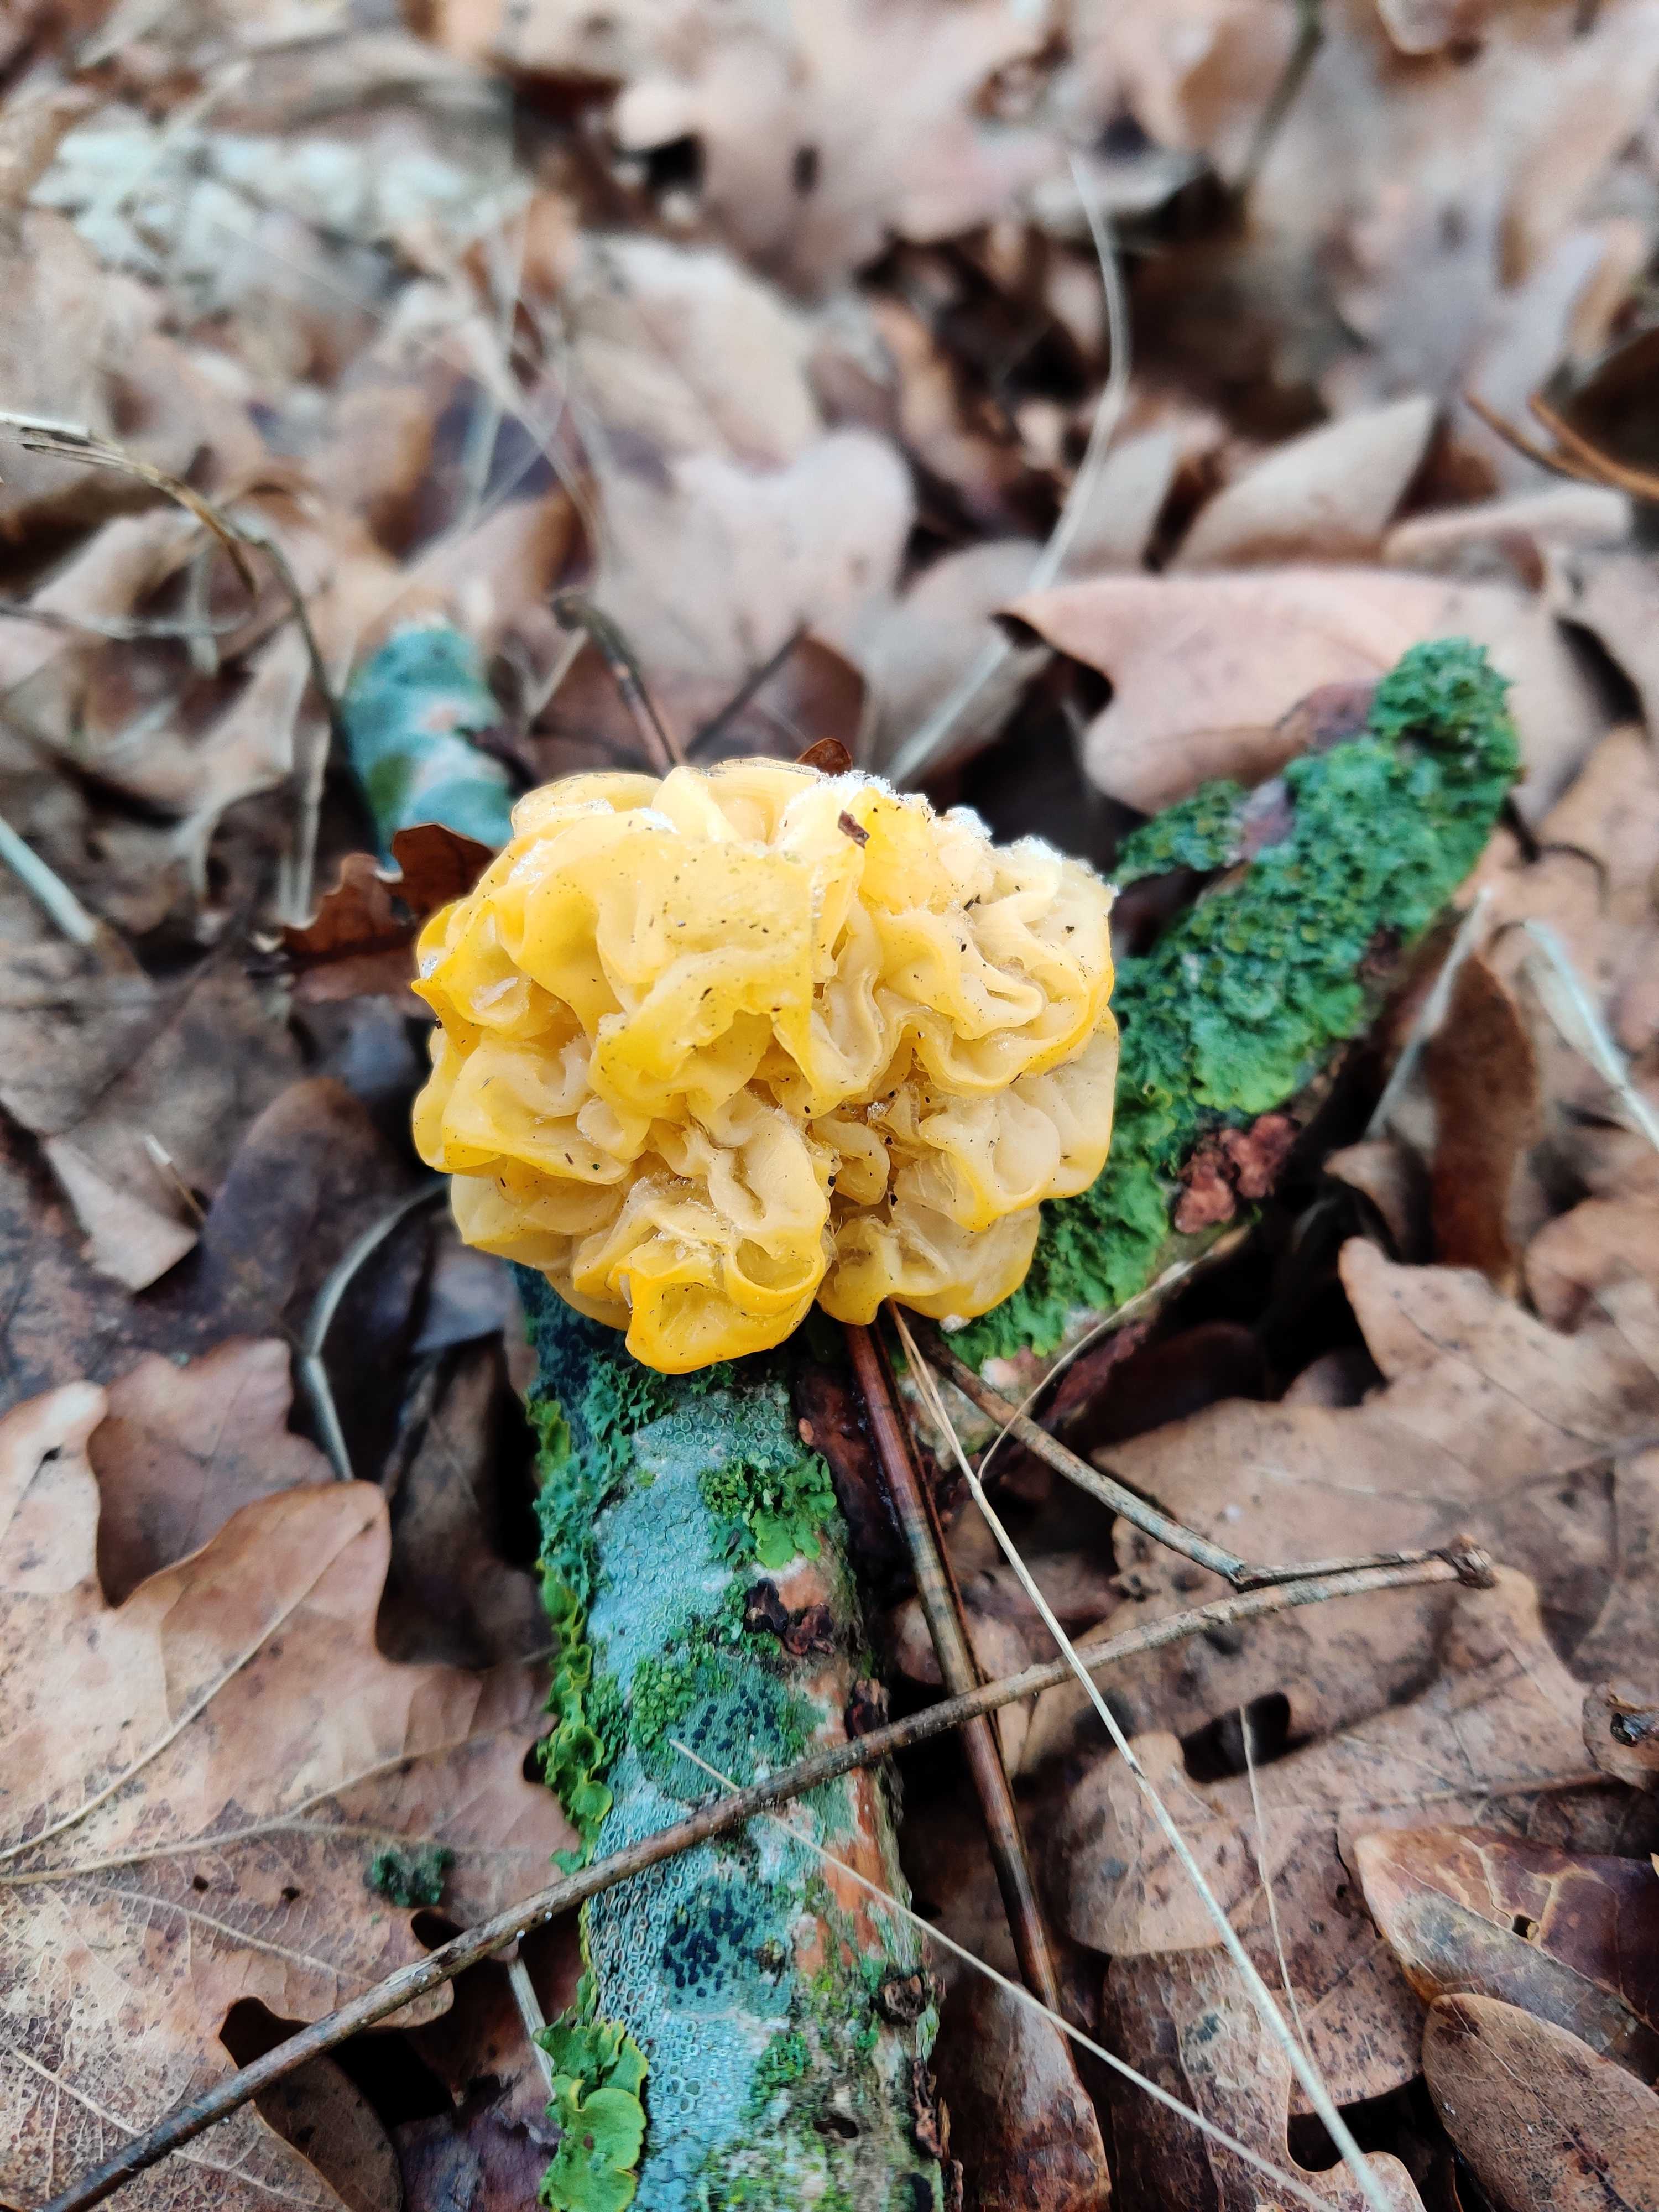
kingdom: Fungi
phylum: Basidiomycota
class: Tremellomycetes
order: Tremellales
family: Tremellaceae
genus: Tremella
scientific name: Tremella mesenterica
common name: gul bævresvamp
